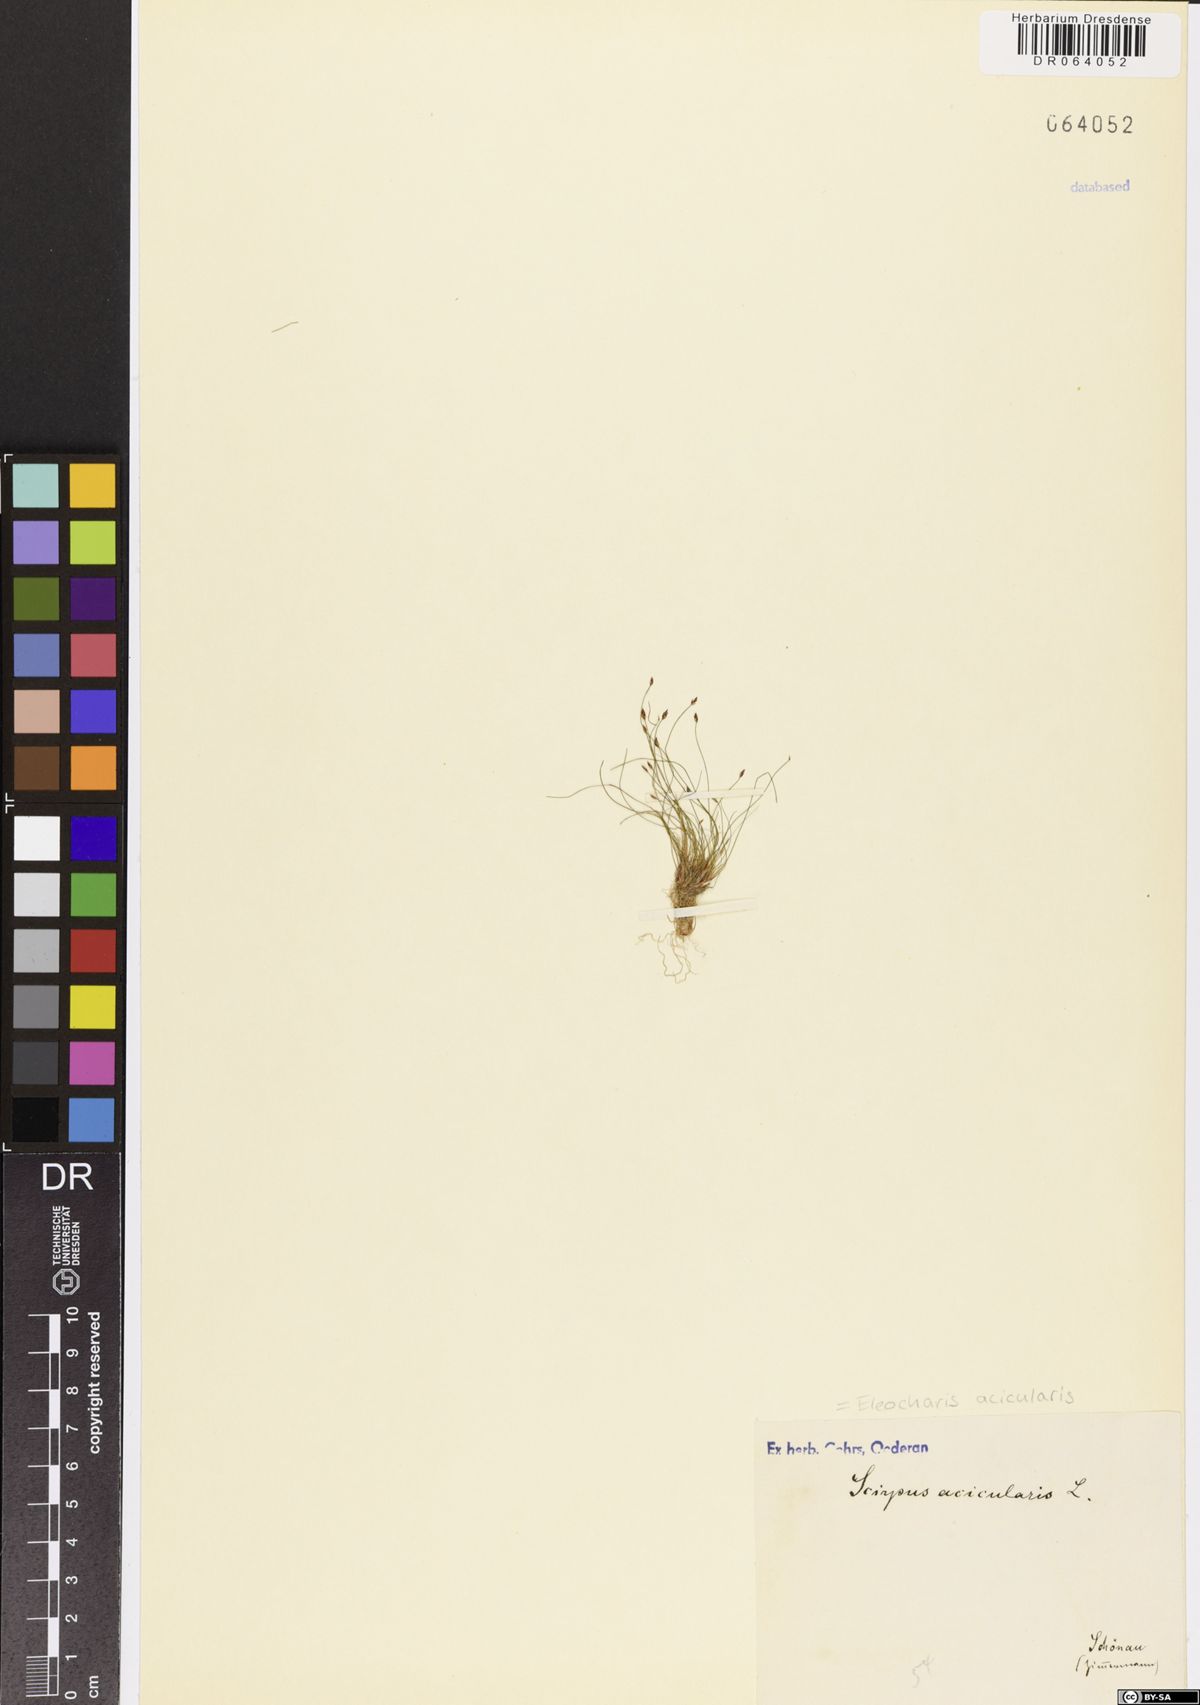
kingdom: Plantae
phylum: Tracheophyta
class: Liliopsida
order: Poales
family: Cyperaceae
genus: Eleocharis
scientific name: Eleocharis acicularis
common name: Needle spike-rush
